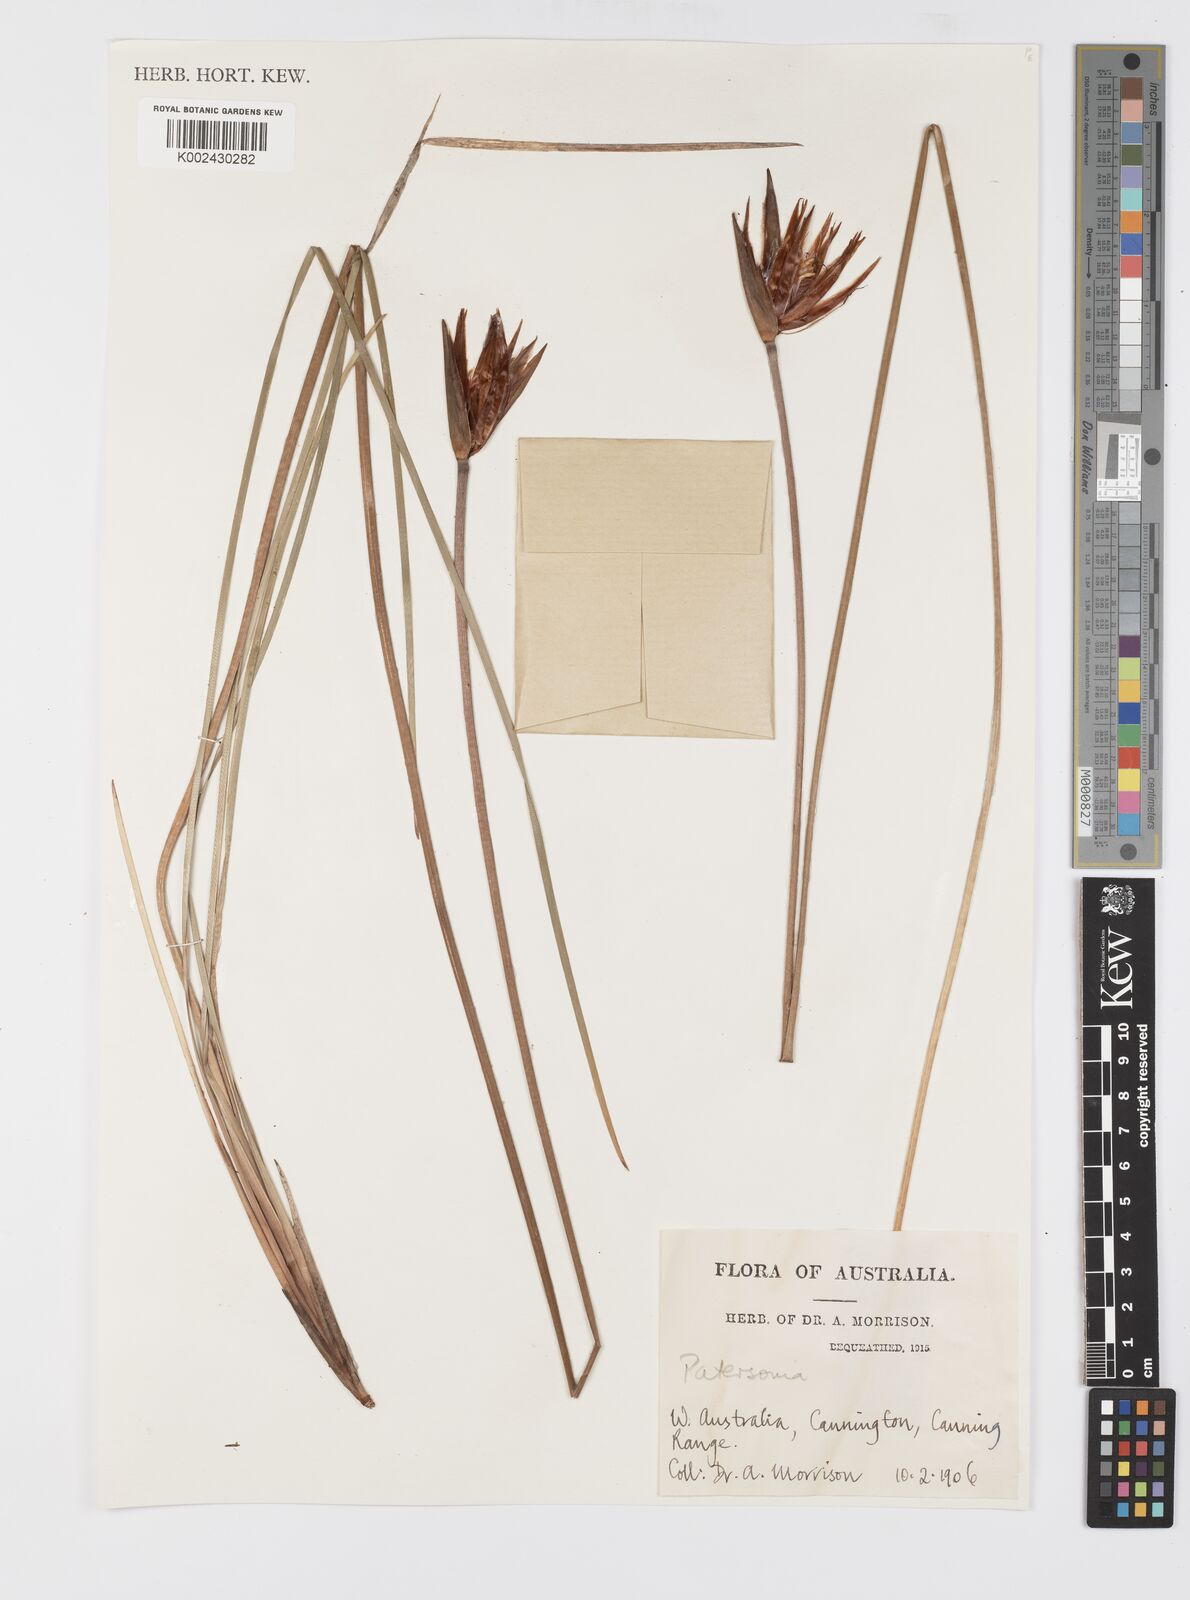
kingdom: Plantae
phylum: Tracheophyta
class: Liliopsida
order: Asparagales
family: Iridaceae
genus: Patersonia
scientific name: Patersonia
